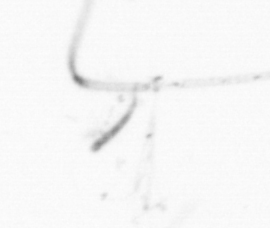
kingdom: Chromista
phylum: Ochrophyta
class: Bacillariophyceae
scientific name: Bacillariophyceae
